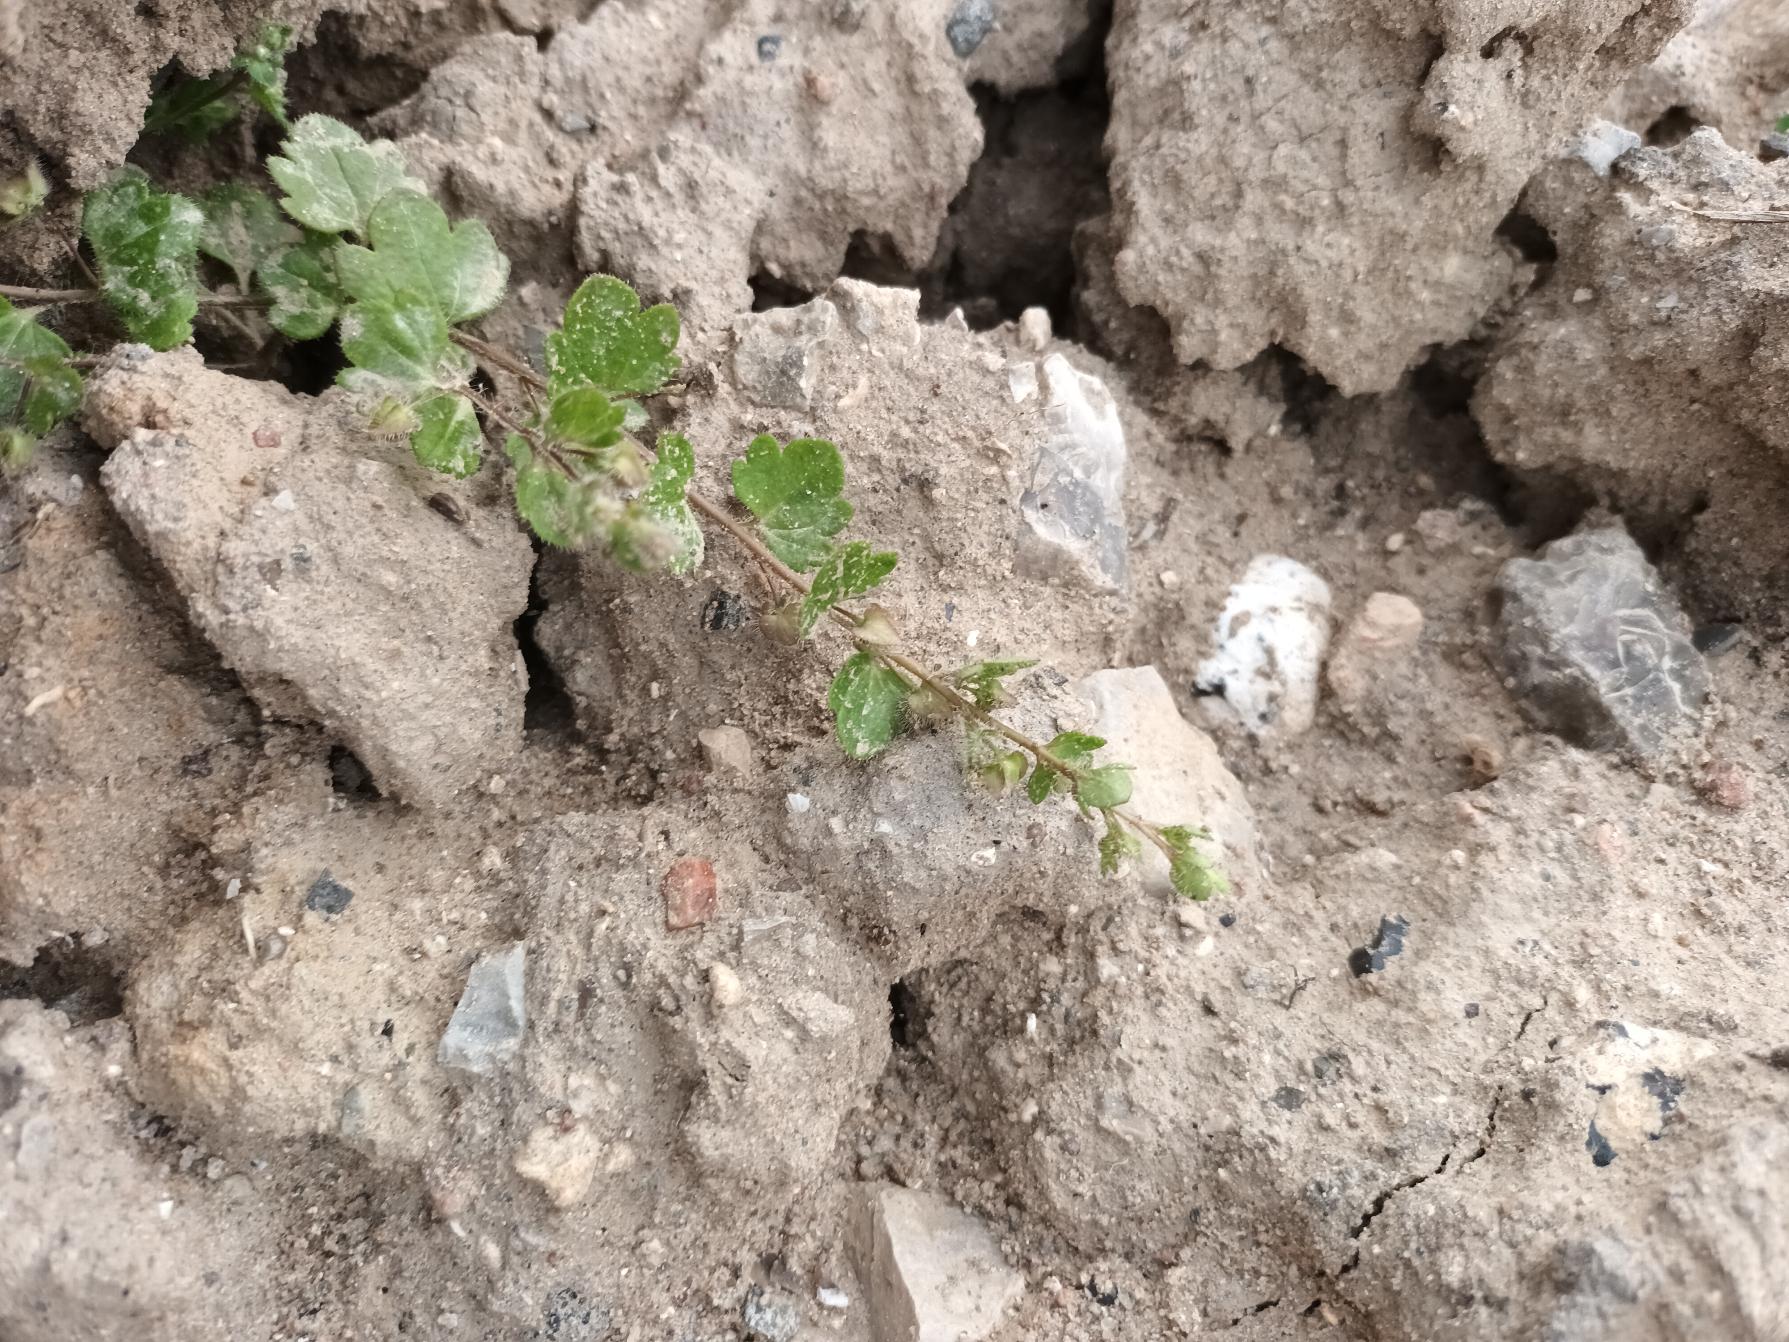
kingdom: Plantae
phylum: Tracheophyta
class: Magnoliopsida
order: Lamiales
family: Plantaginaceae
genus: Veronica
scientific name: Veronica hederifolia
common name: Vedbend-ærenpris
